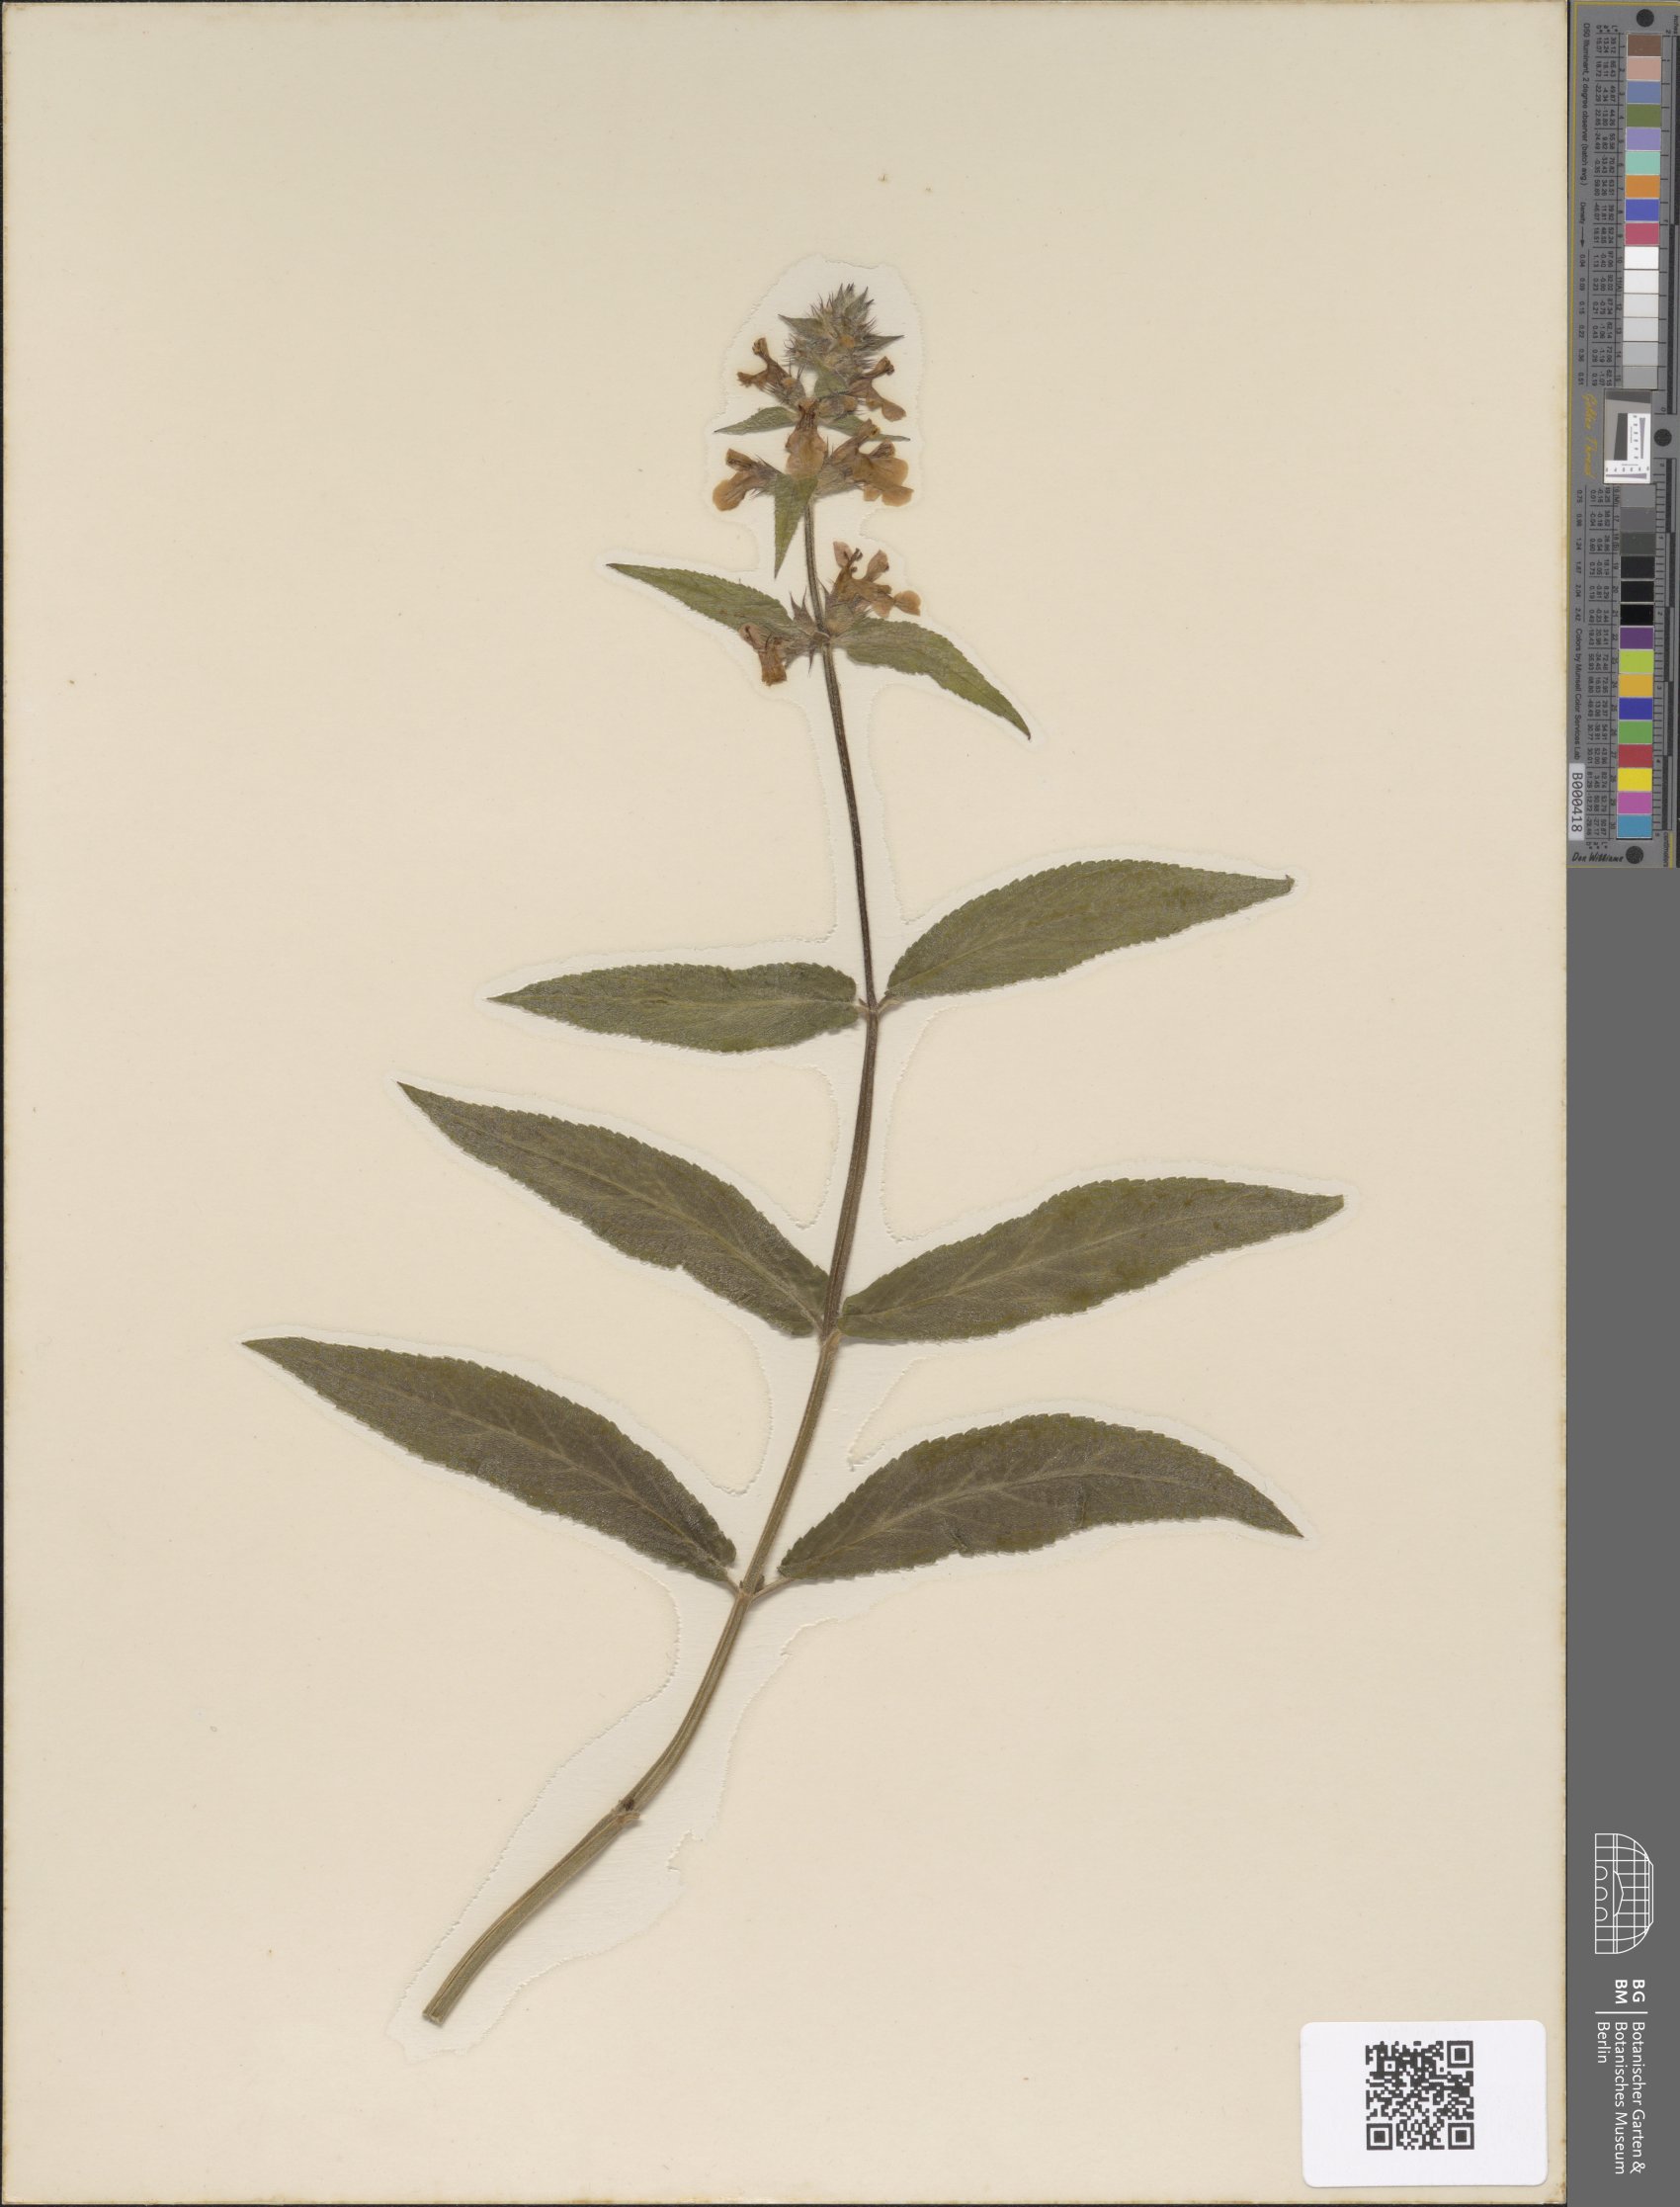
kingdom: Plantae
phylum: Tracheophyta
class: Magnoliopsida
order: Lamiales
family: Lamiaceae
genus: Stachys
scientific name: Stachys palustris
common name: Marsh woundwort
